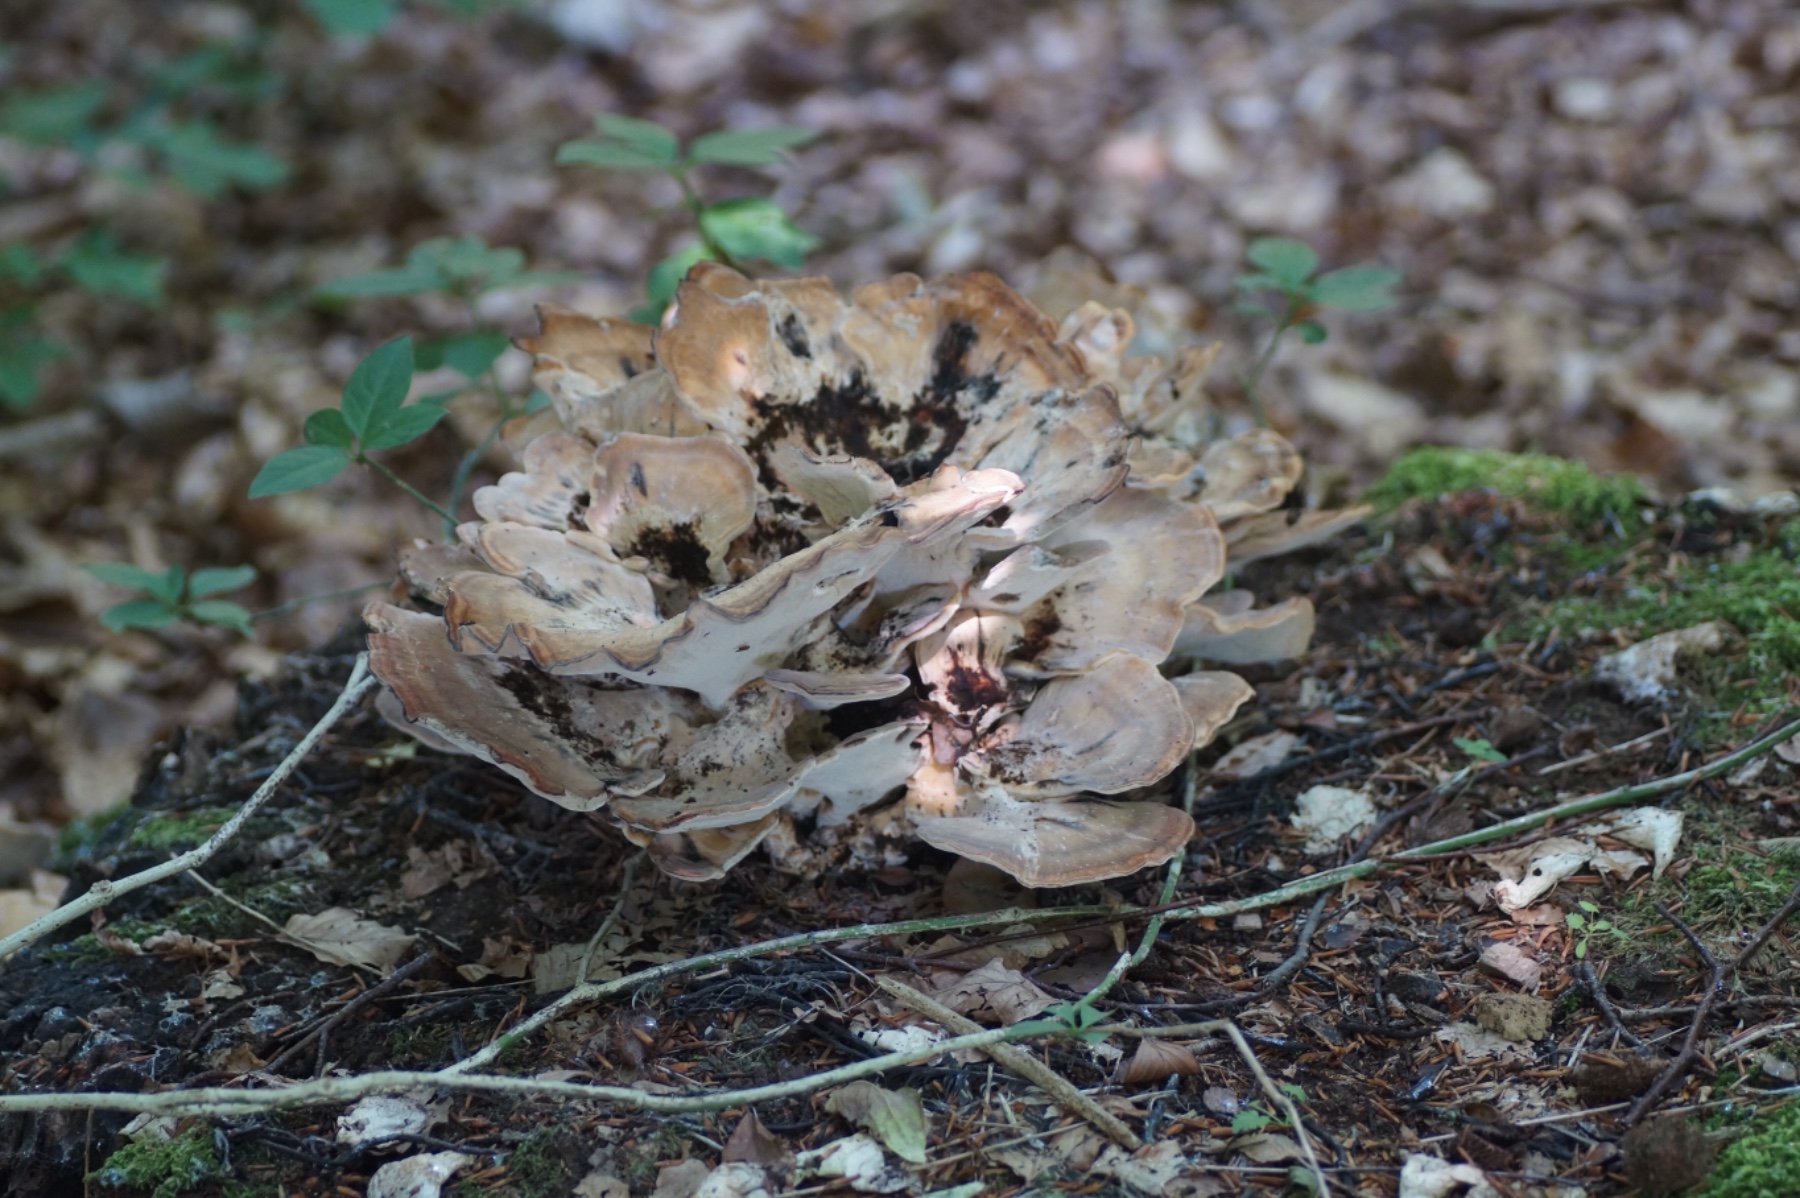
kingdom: Fungi
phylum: Basidiomycota
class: Agaricomycetes
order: Polyporales
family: Meripilaceae
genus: Meripilus
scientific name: Meripilus giganteus
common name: kæmpeporesvamp
